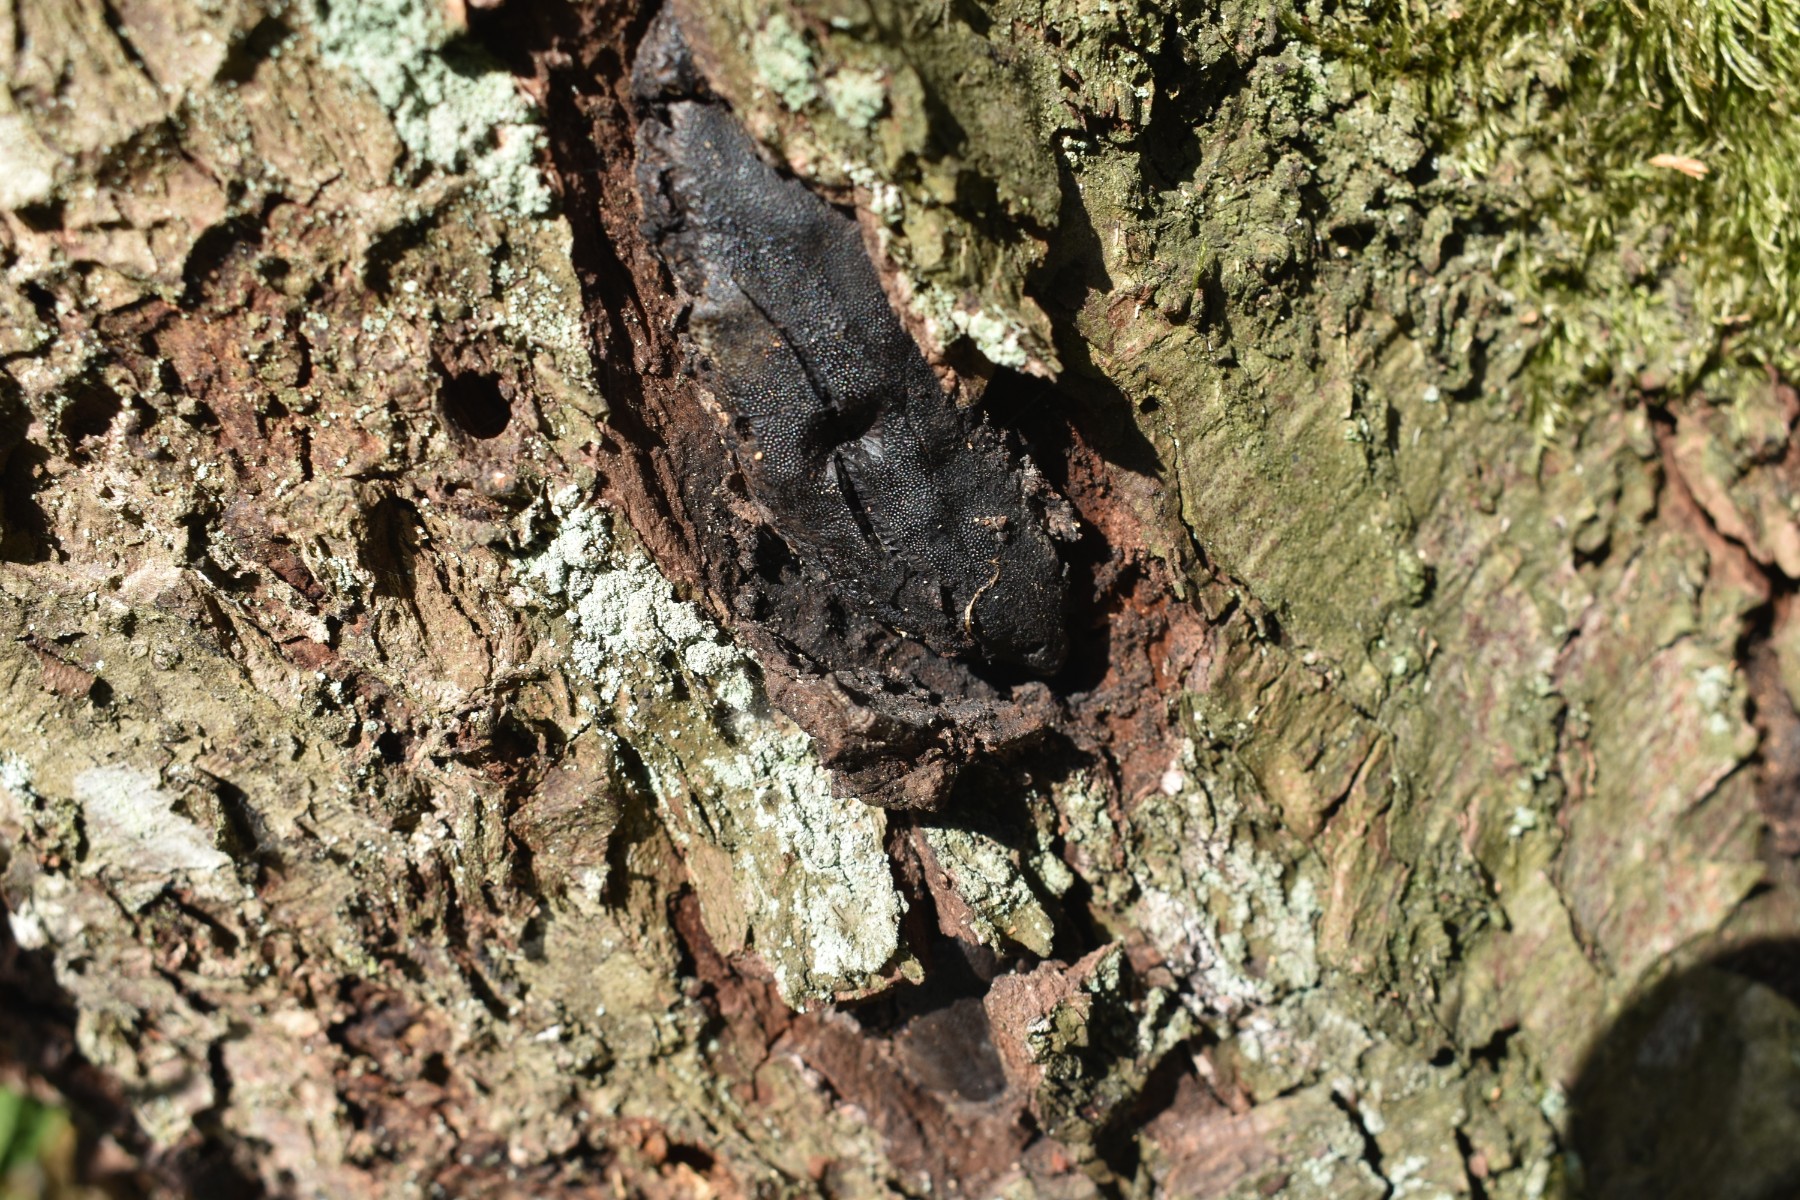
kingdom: Fungi
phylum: Ascomycota
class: Sordariomycetes
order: Boliniales
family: Boliniaceae
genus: Camarops
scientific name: Camarops polysperma
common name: elle-kulsnegl
